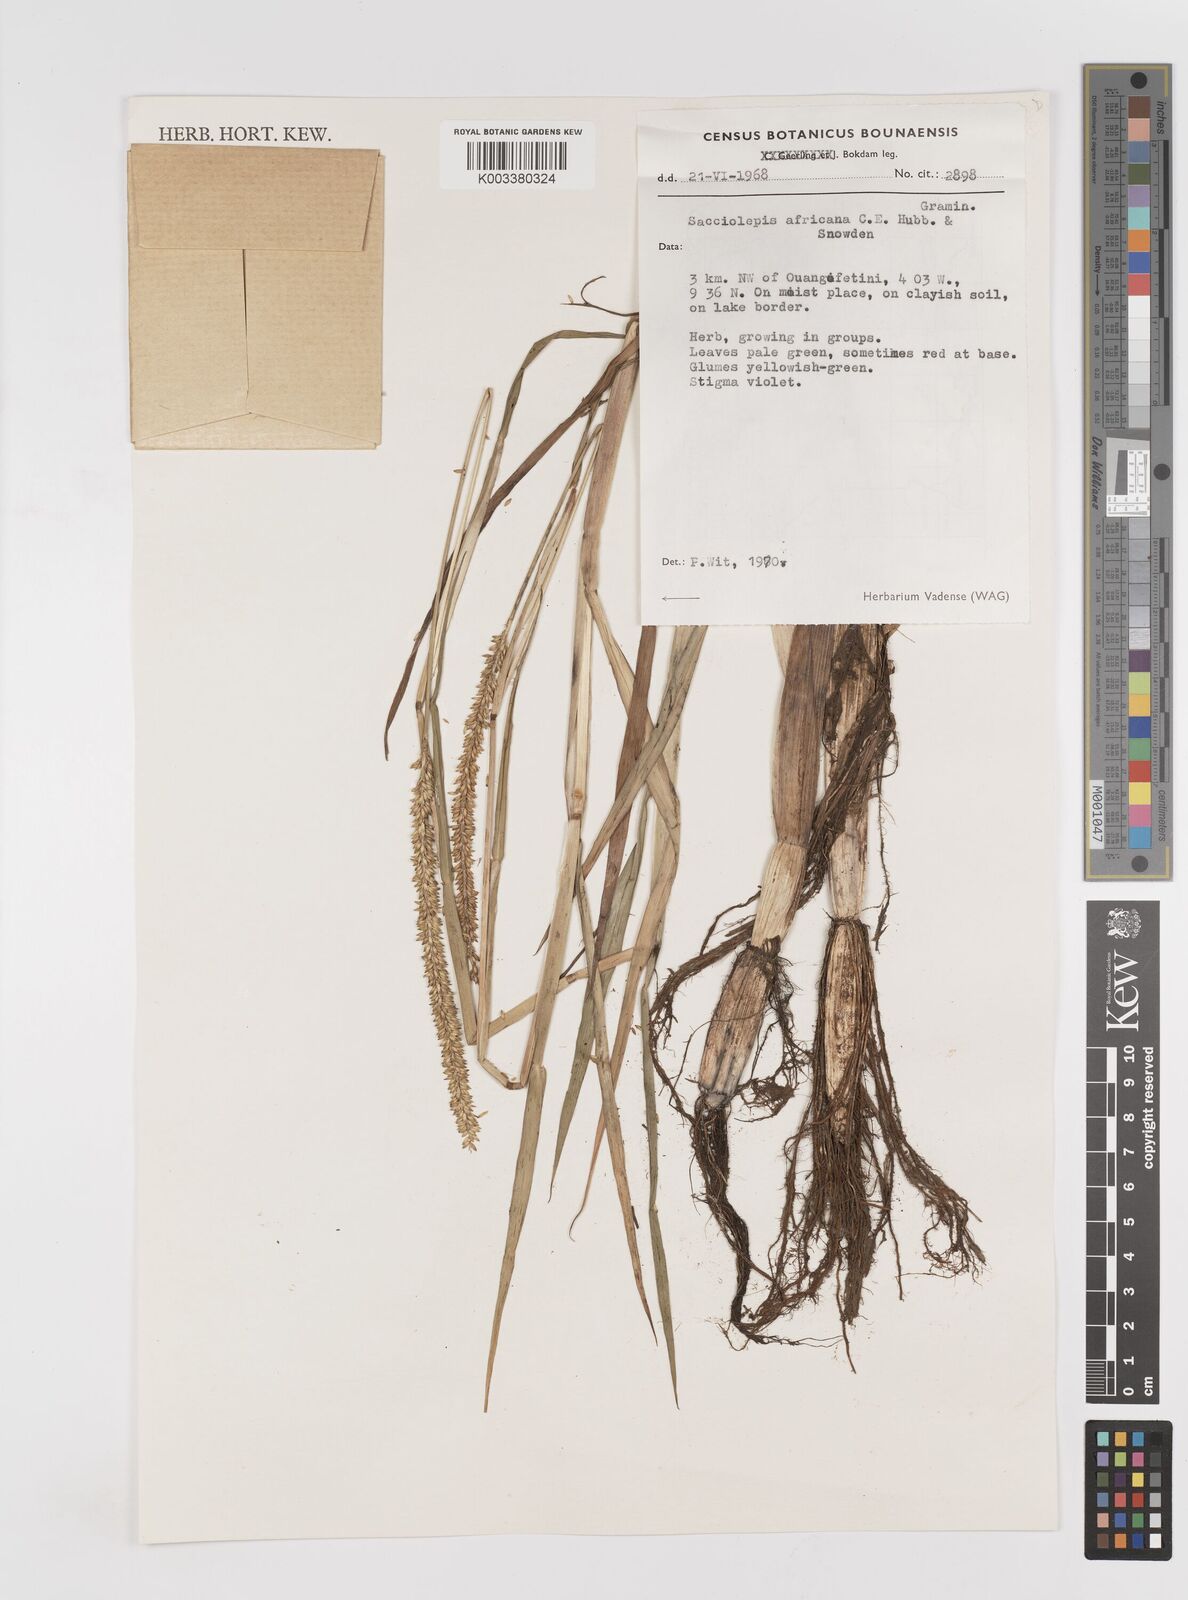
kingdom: Plantae
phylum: Tracheophyta
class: Liliopsida
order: Poales
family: Poaceae
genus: Sacciolepis
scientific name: Sacciolepis africana
